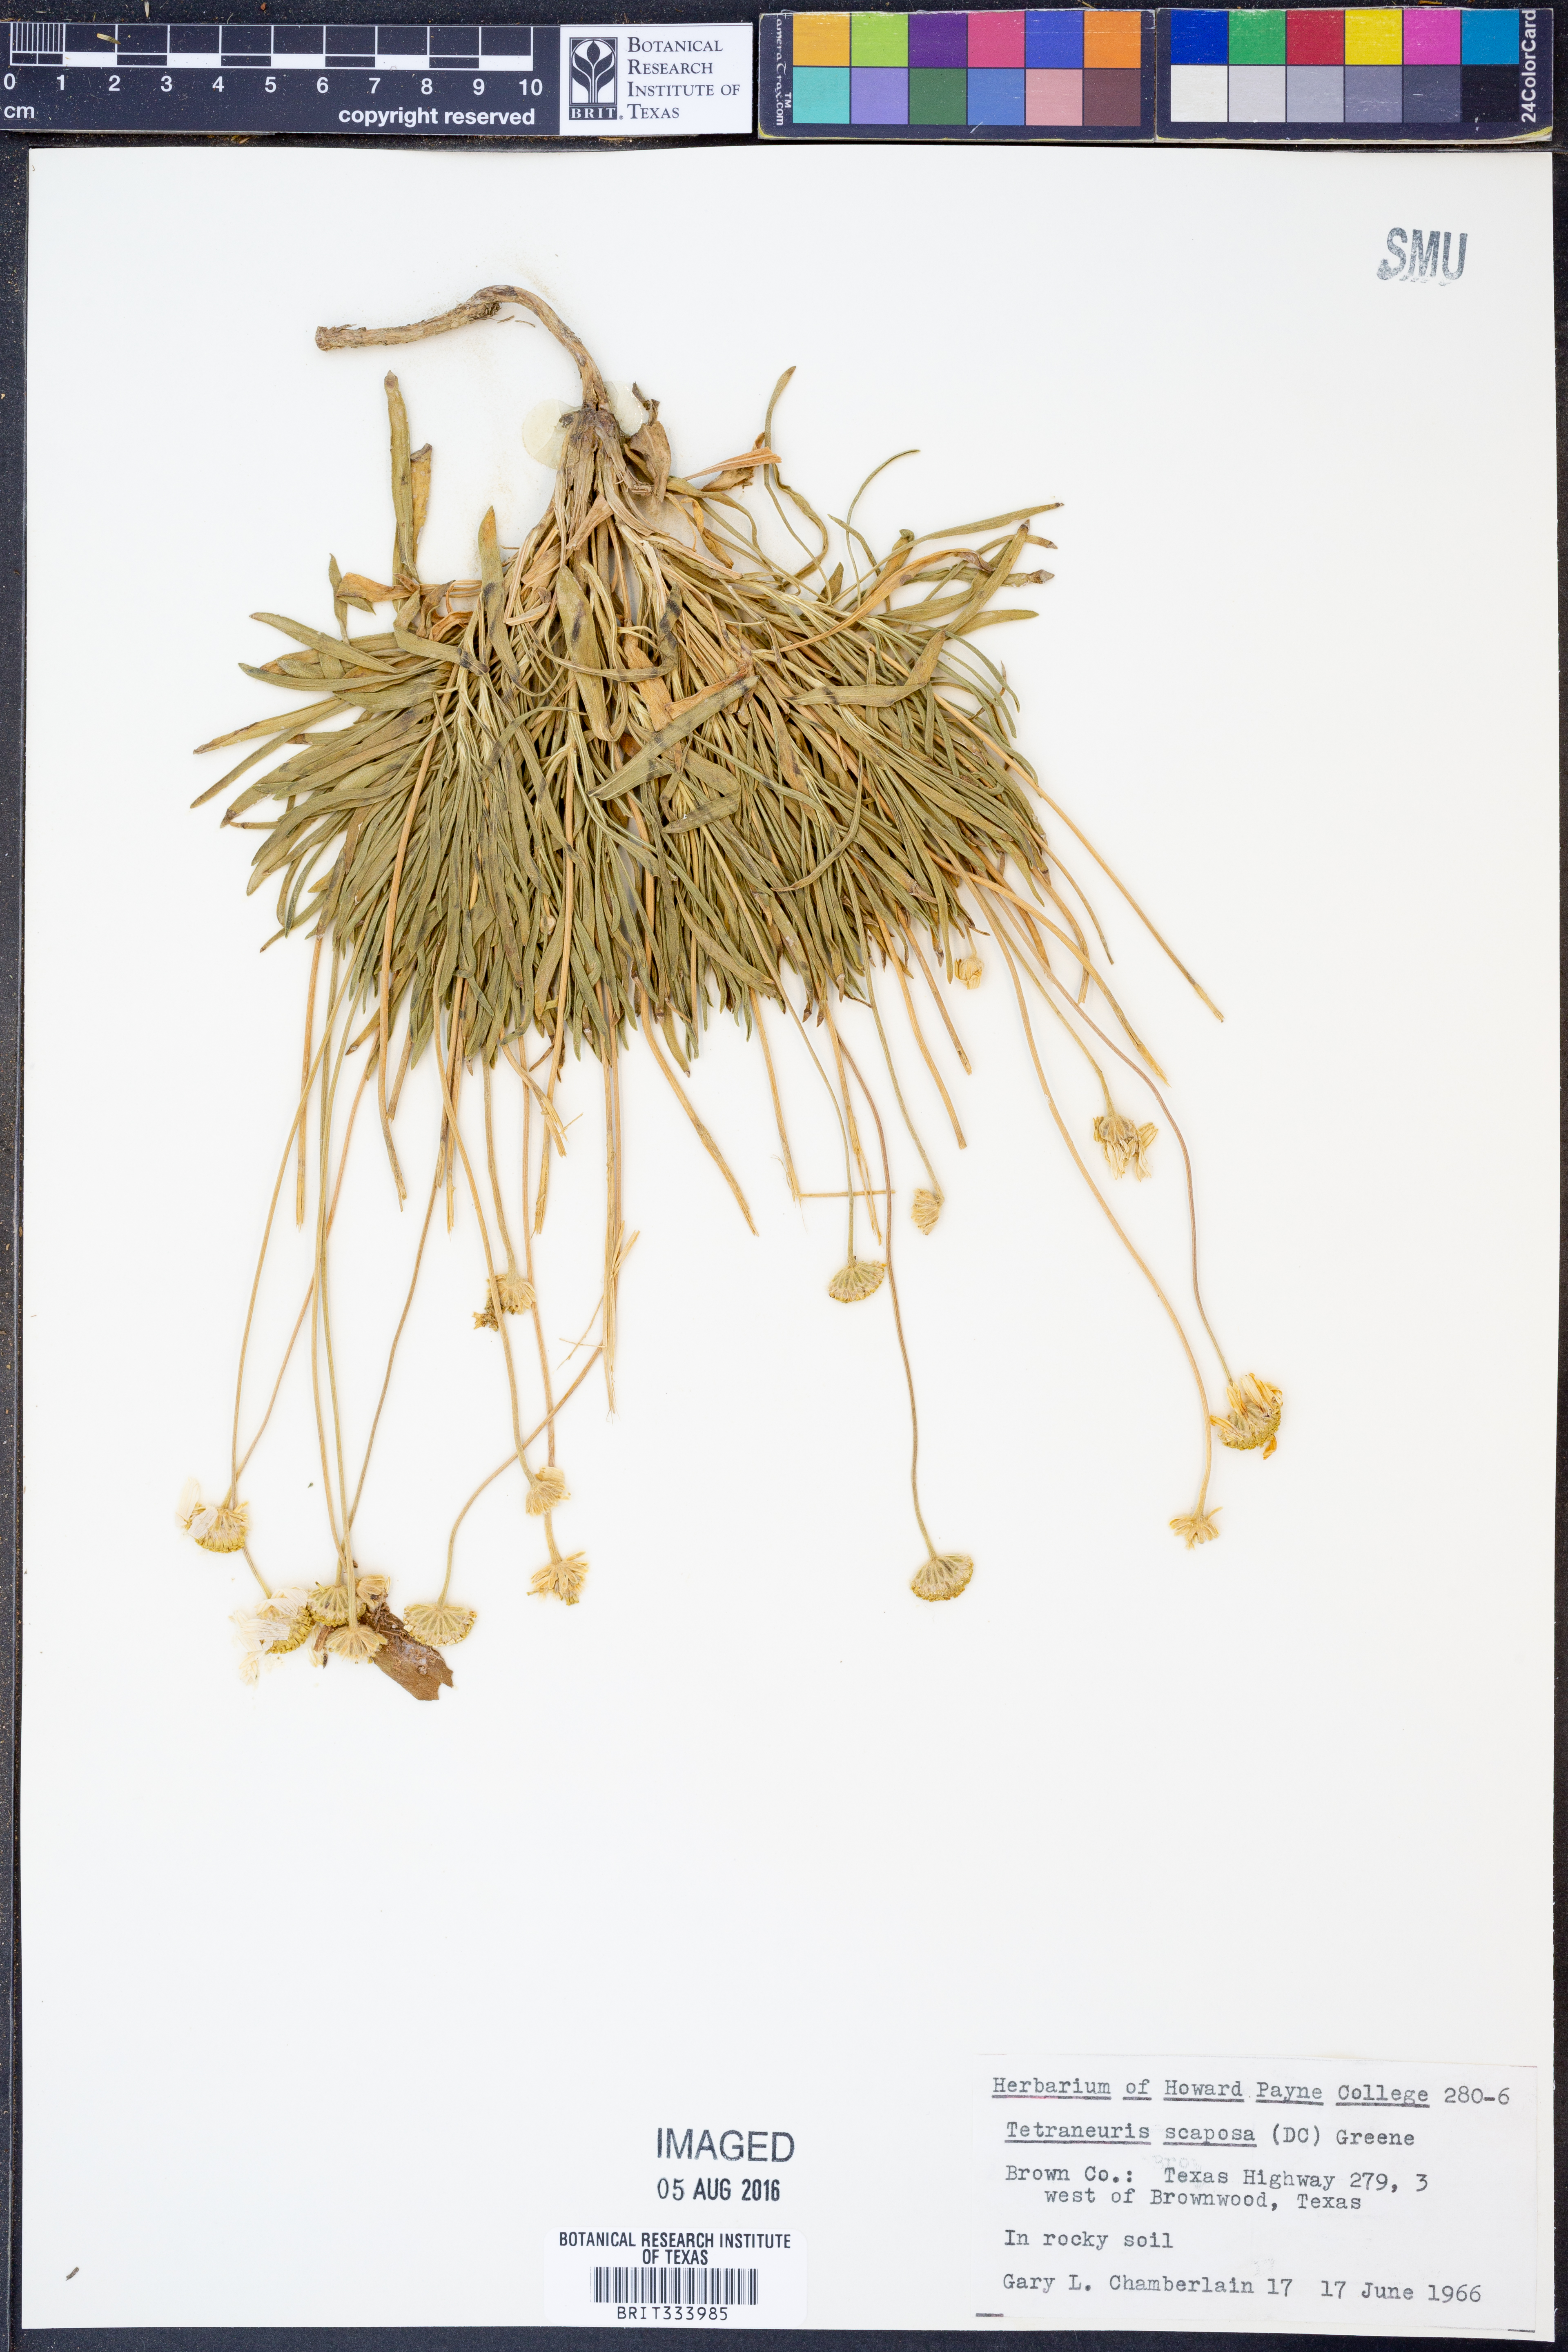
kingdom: Plantae
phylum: Tracheophyta
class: Magnoliopsida
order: Asterales
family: Asteraceae
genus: Tetraneuris
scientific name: Tetraneuris scaposa
